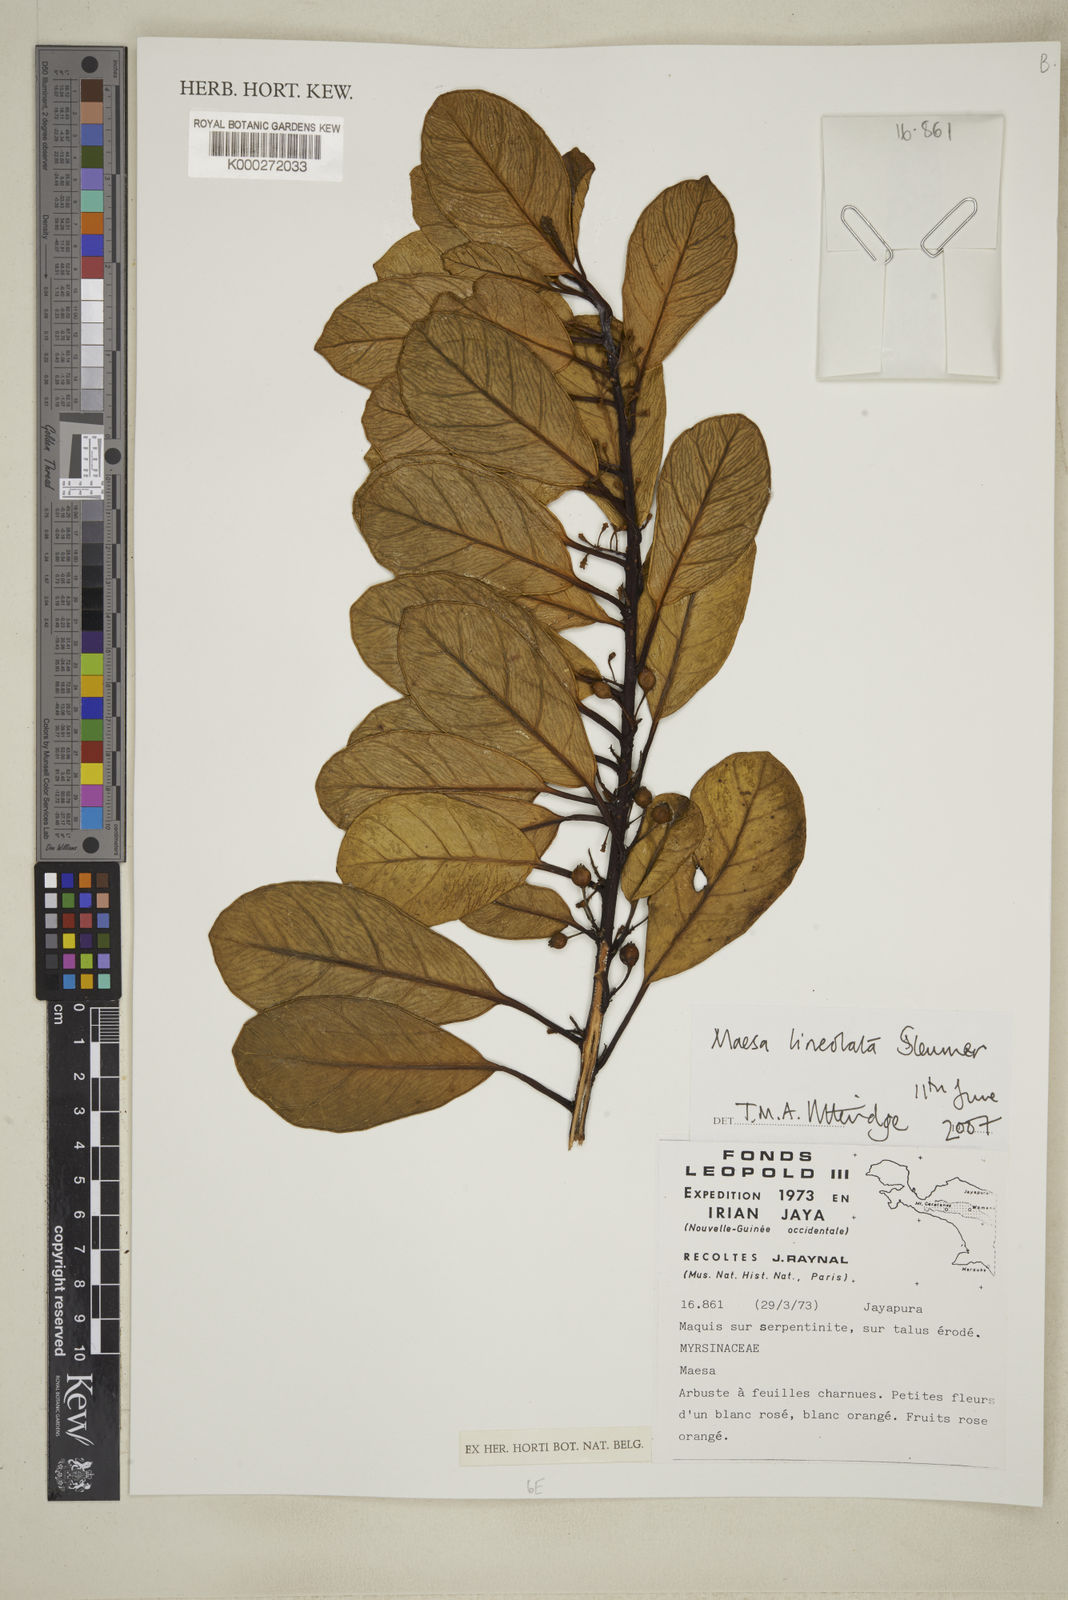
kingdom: Plantae
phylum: Tracheophyta
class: Magnoliopsida
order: Ericales
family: Primulaceae
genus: Maesa
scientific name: Maesa lineolata
